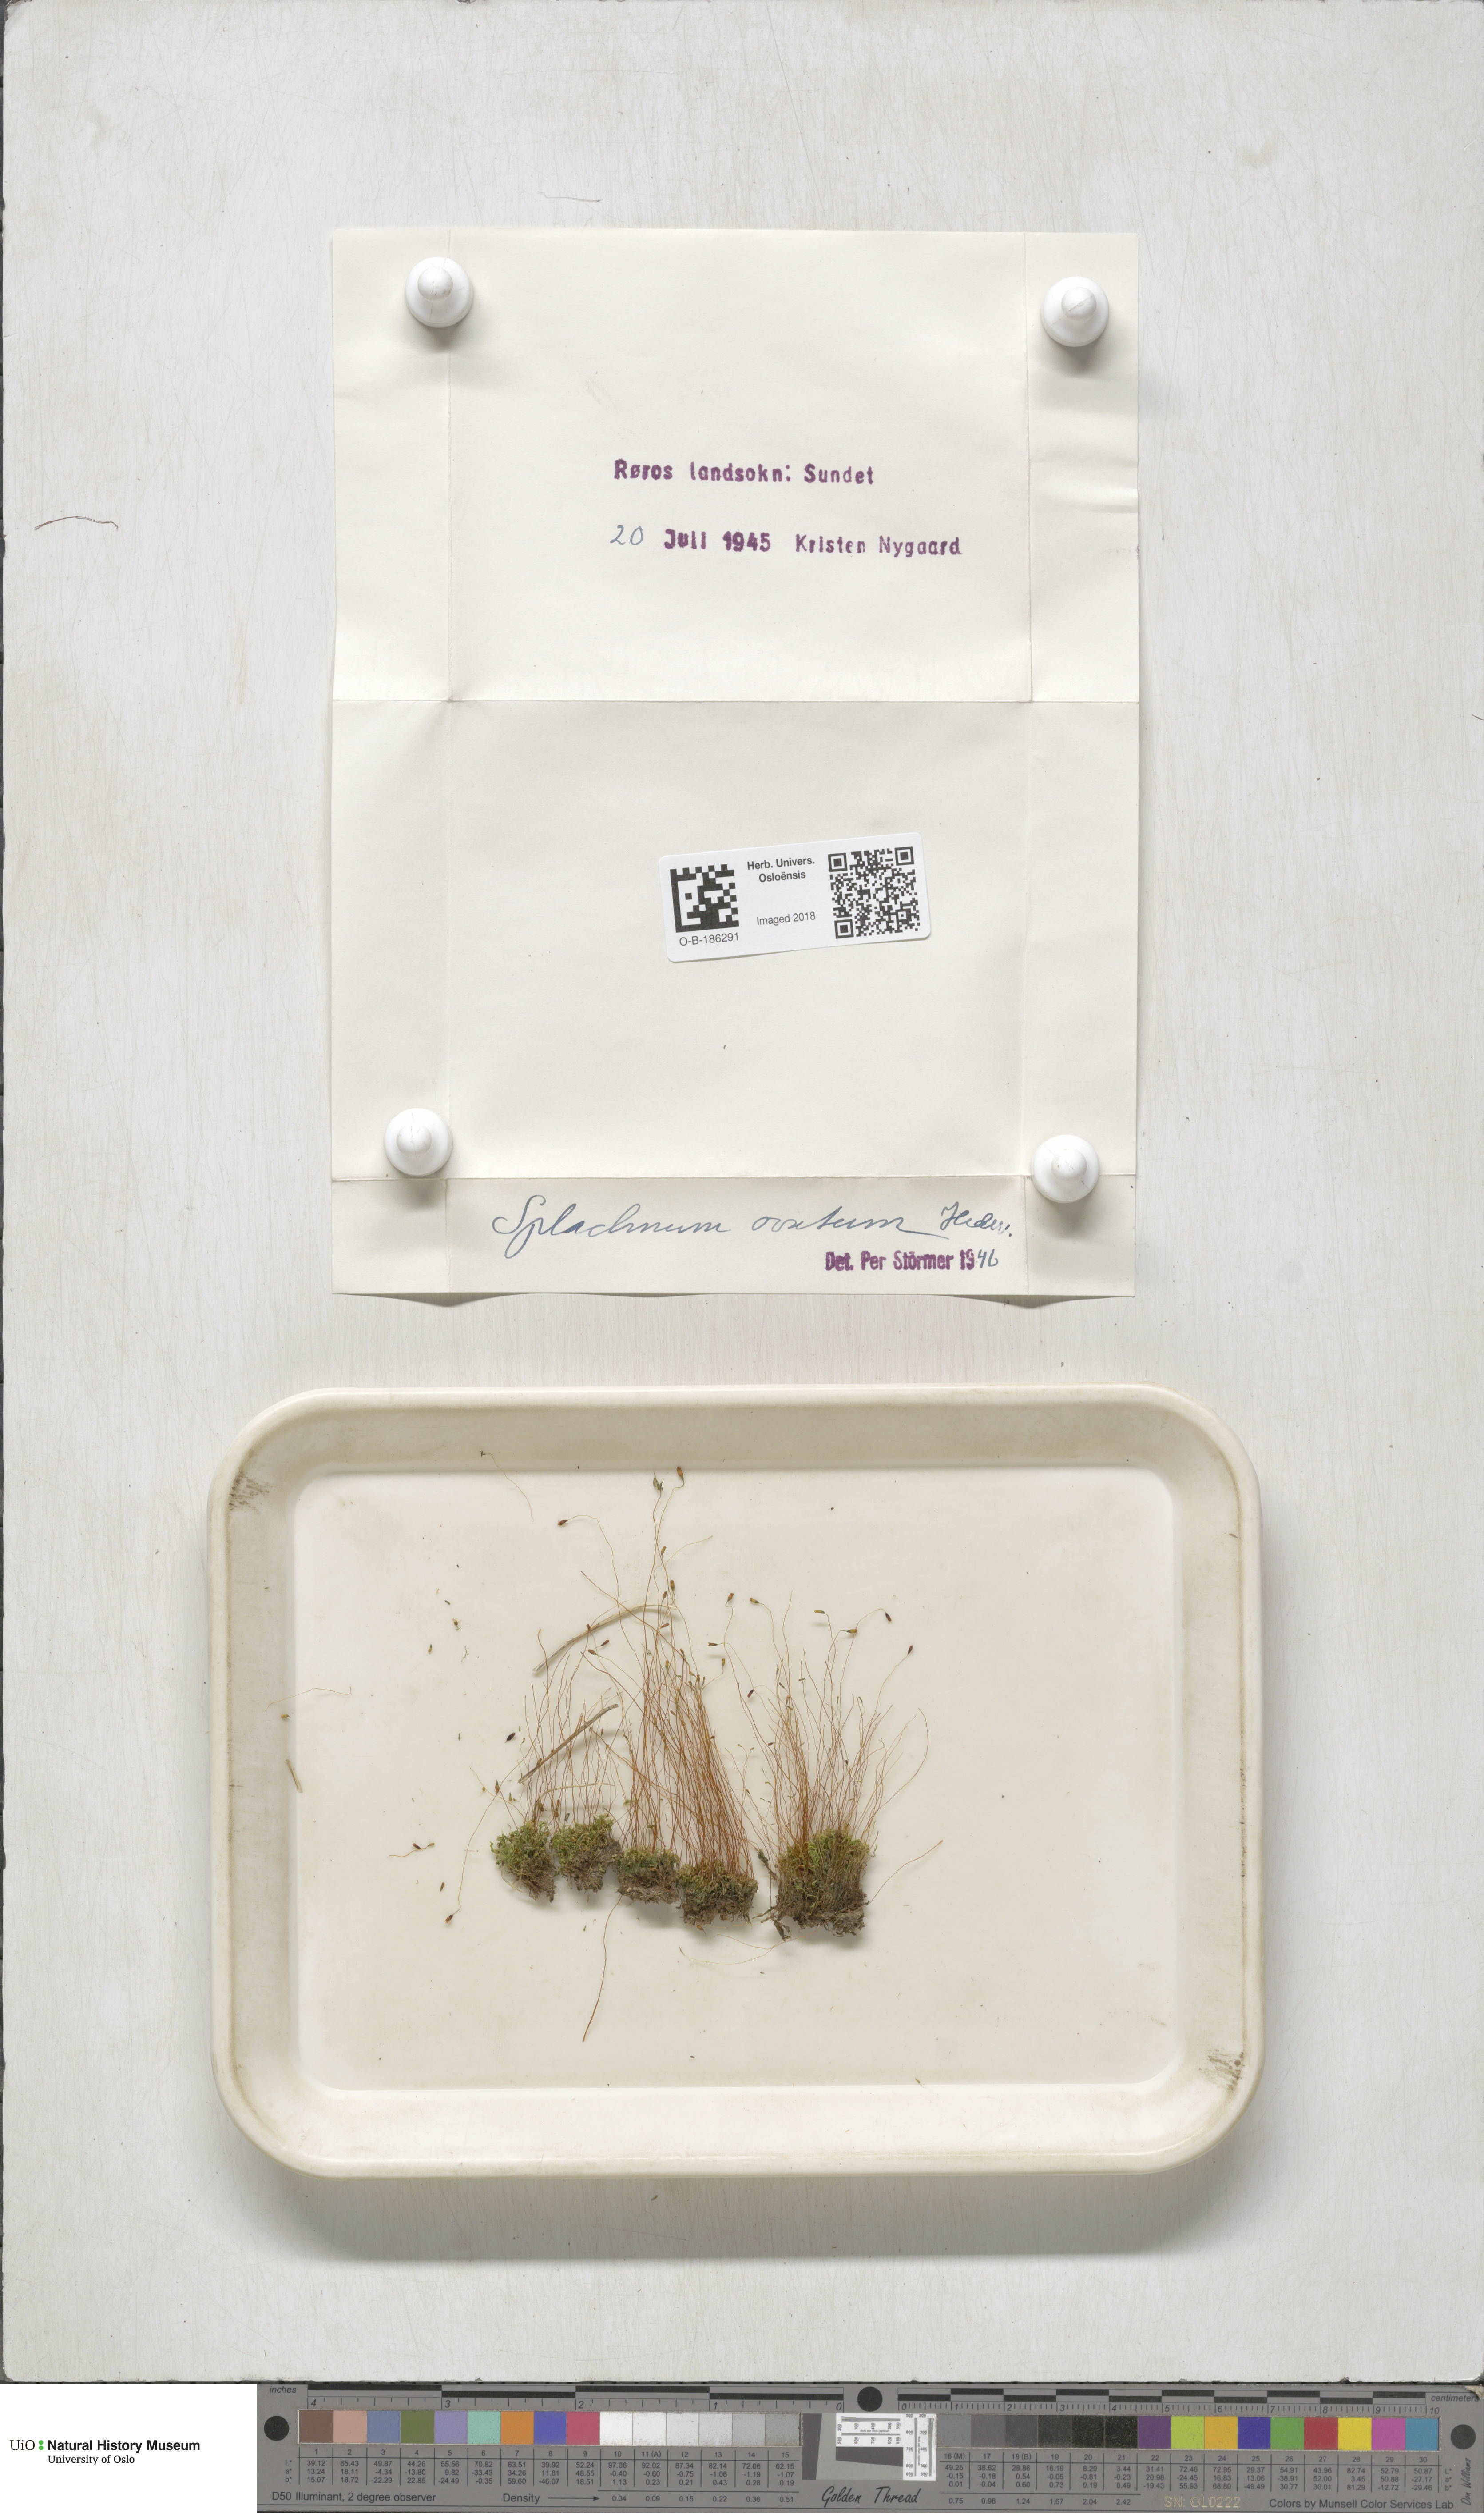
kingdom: Plantae
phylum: Bryophyta
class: Bryopsida
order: Splachnales
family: Splachnaceae
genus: Splachnum
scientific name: Splachnum sphaericum
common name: Round-fruited dung moss
